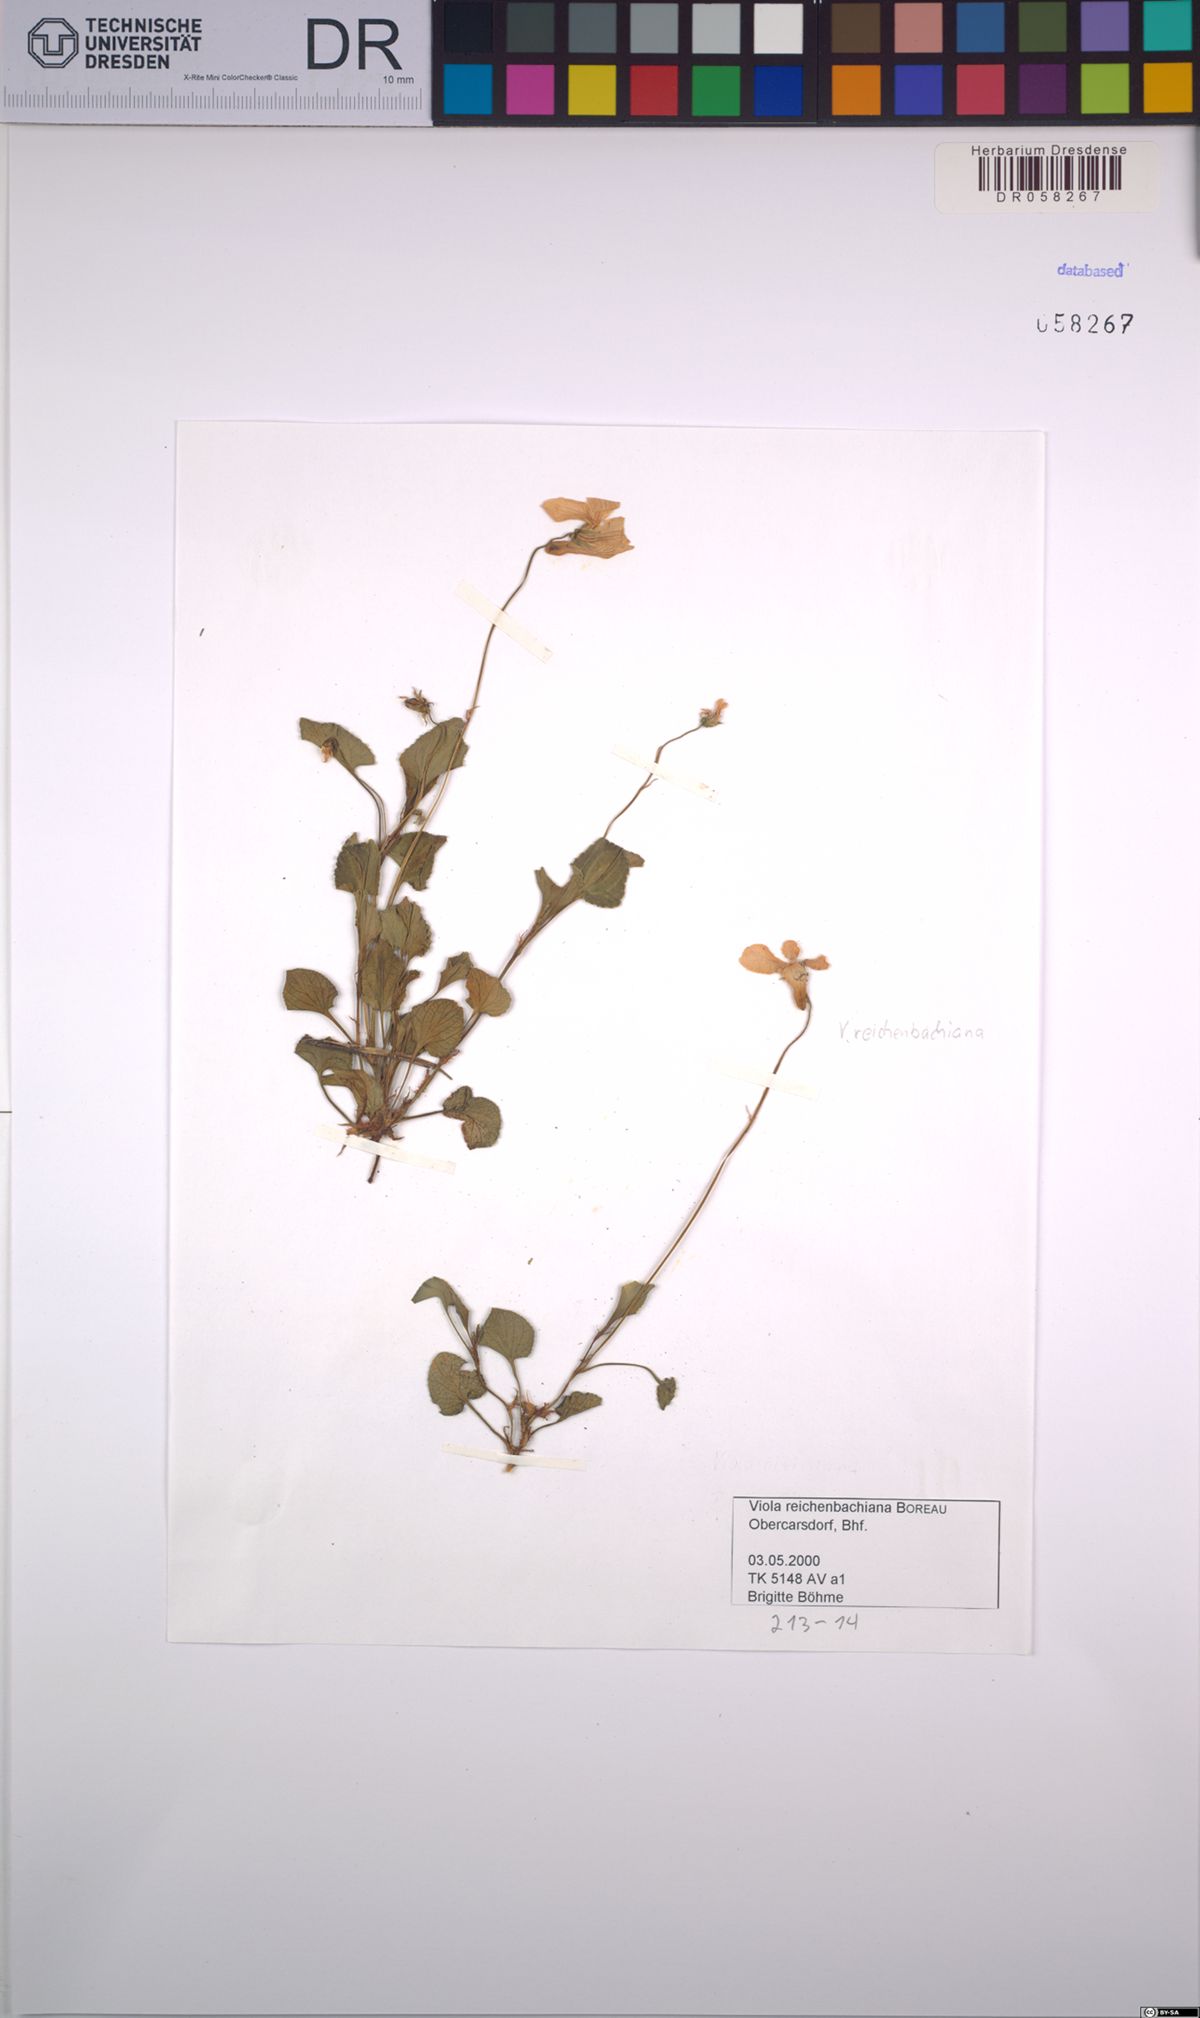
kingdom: Plantae
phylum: Tracheophyta
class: Magnoliopsida
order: Malpighiales
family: Violaceae
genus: Viola
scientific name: Viola reichenbachiana
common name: Early dog-violet
